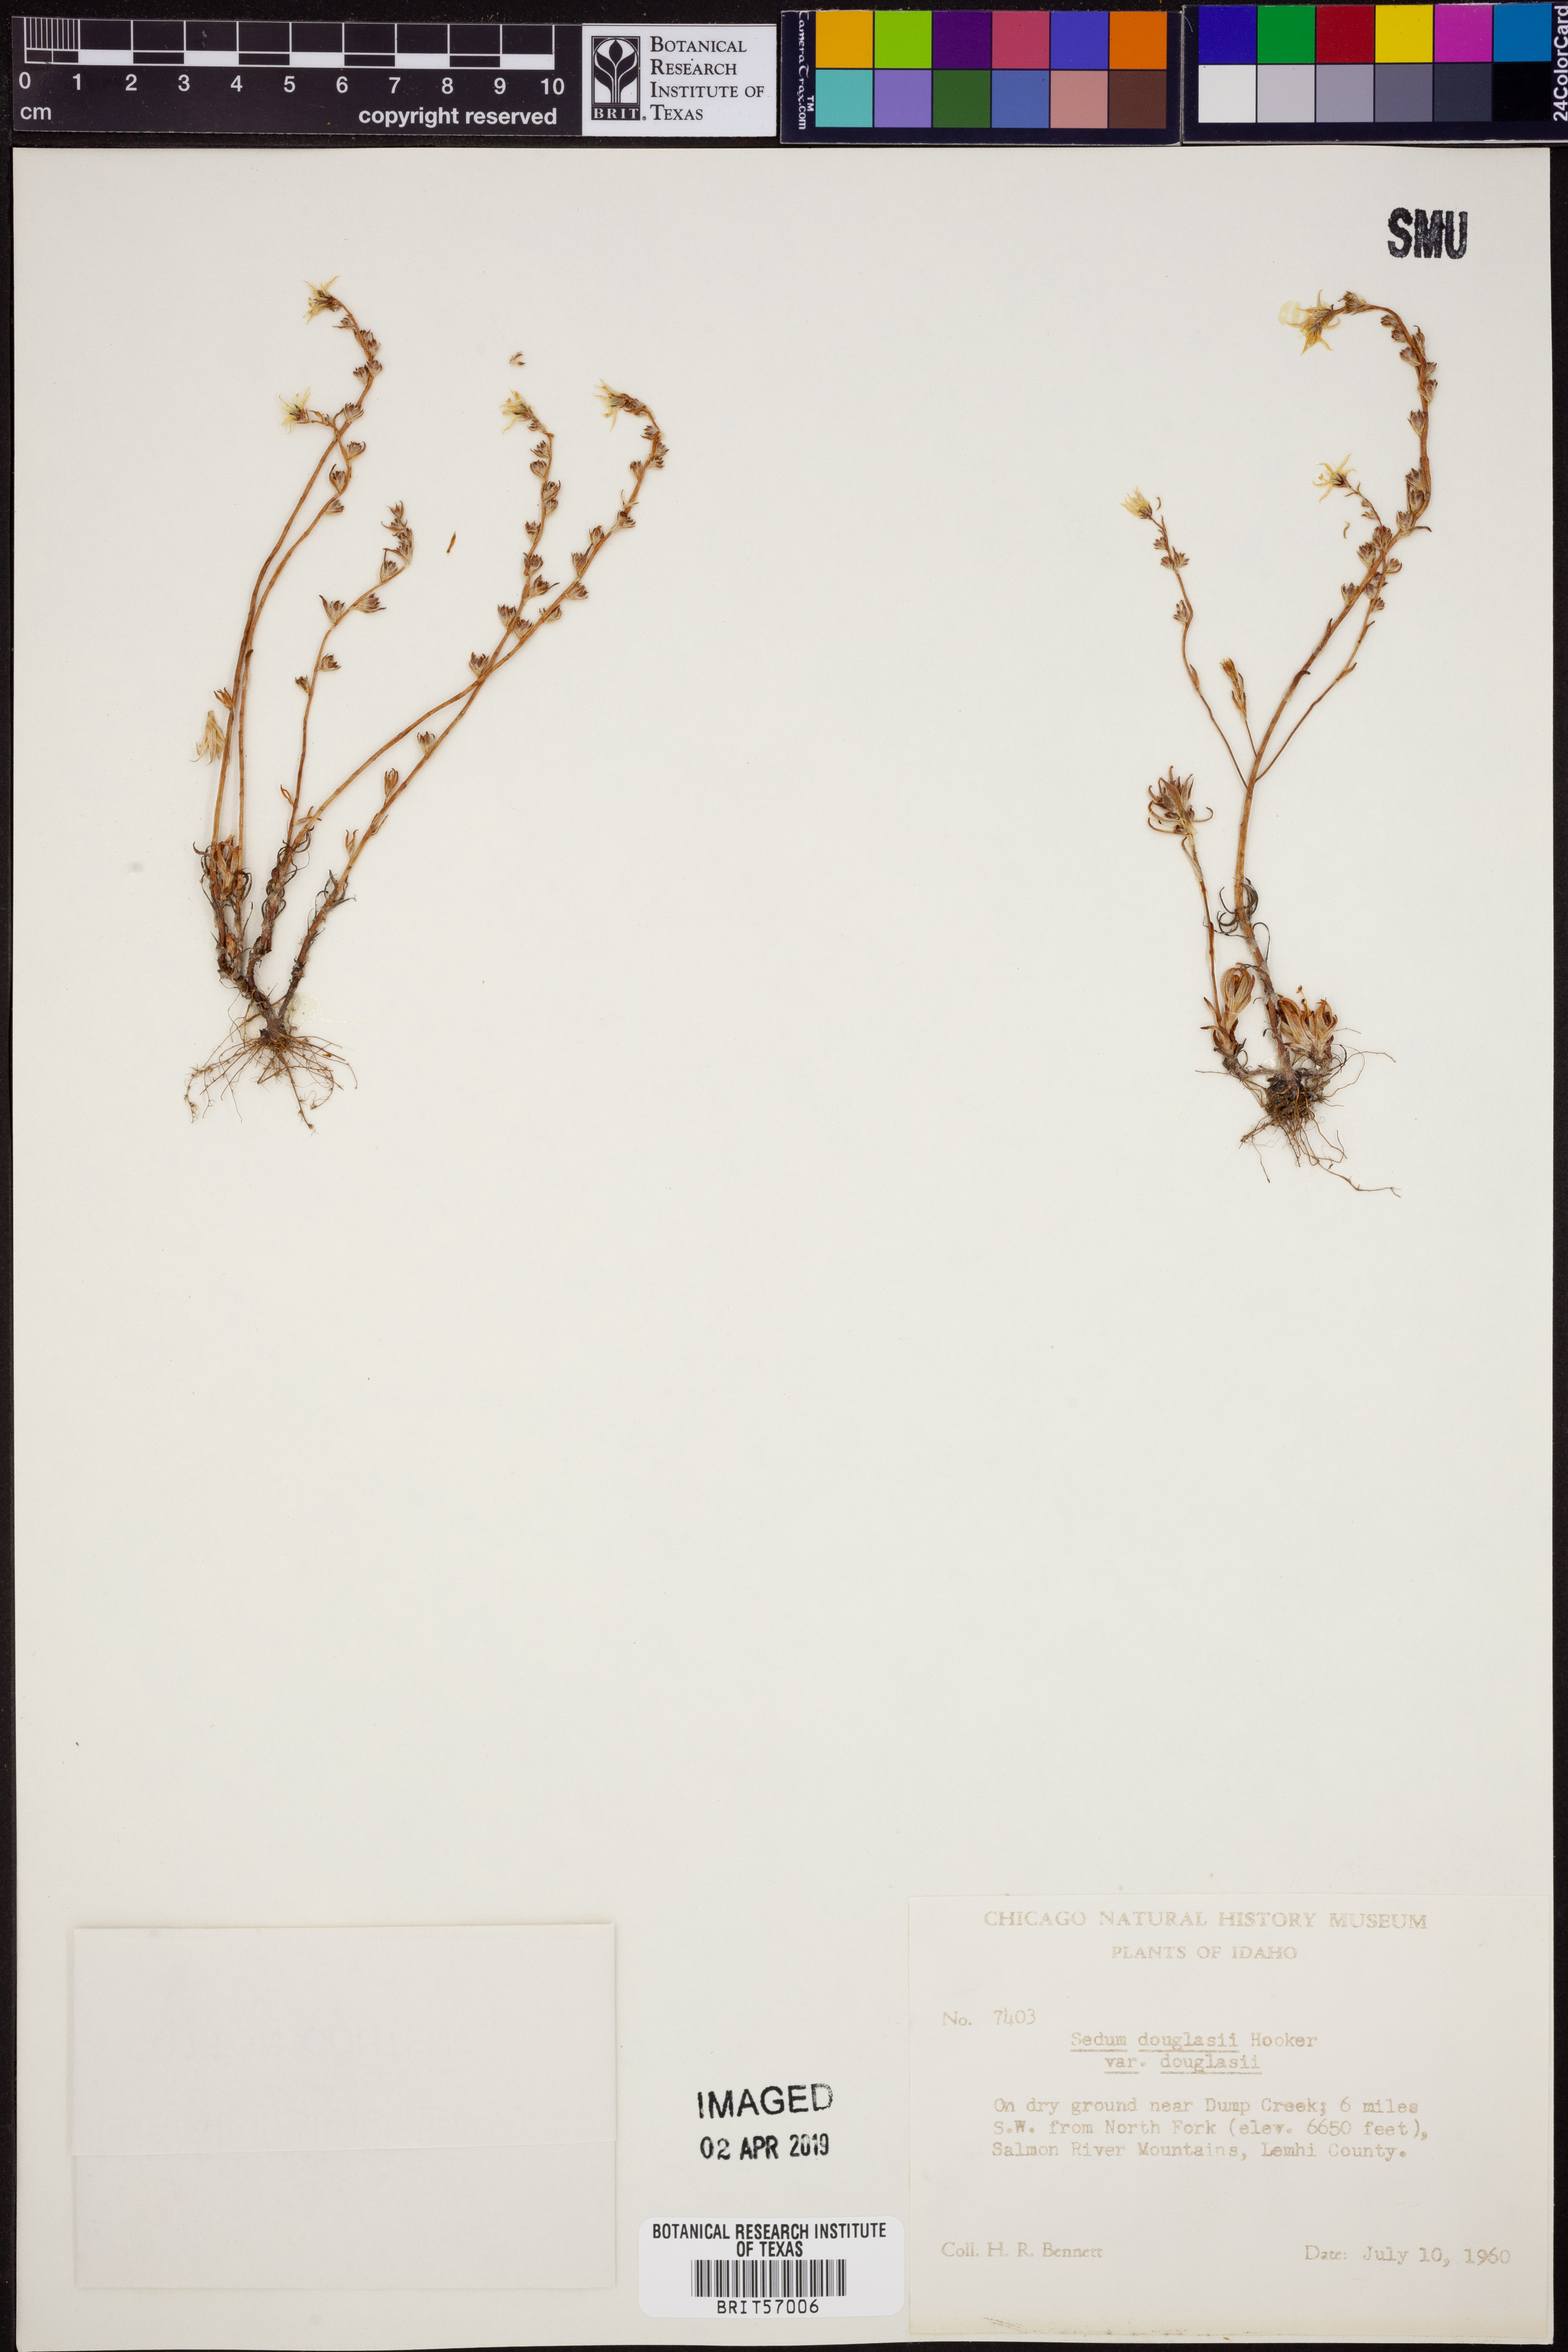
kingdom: Plantae
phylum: Tracheophyta
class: Magnoliopsida
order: Saxifragales
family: Crassulaceae
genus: Sedum
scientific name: Sedum
